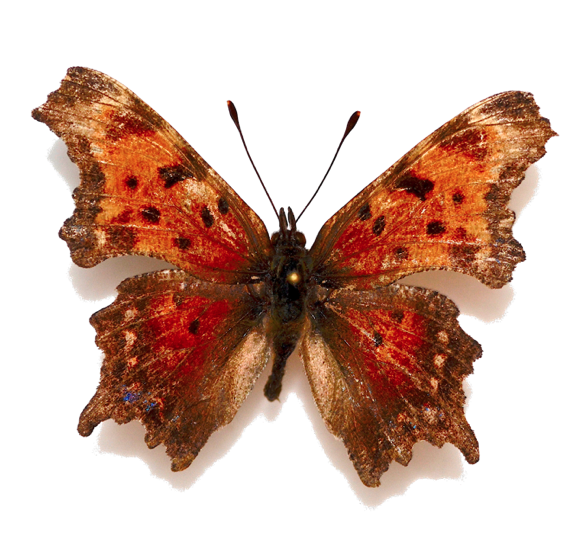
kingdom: Animalia
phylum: Arthropoda
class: Insecta
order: Lepidoptera
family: Nymphalidae
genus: Polygonia
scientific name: Polygonia progne
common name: Gray Comma
